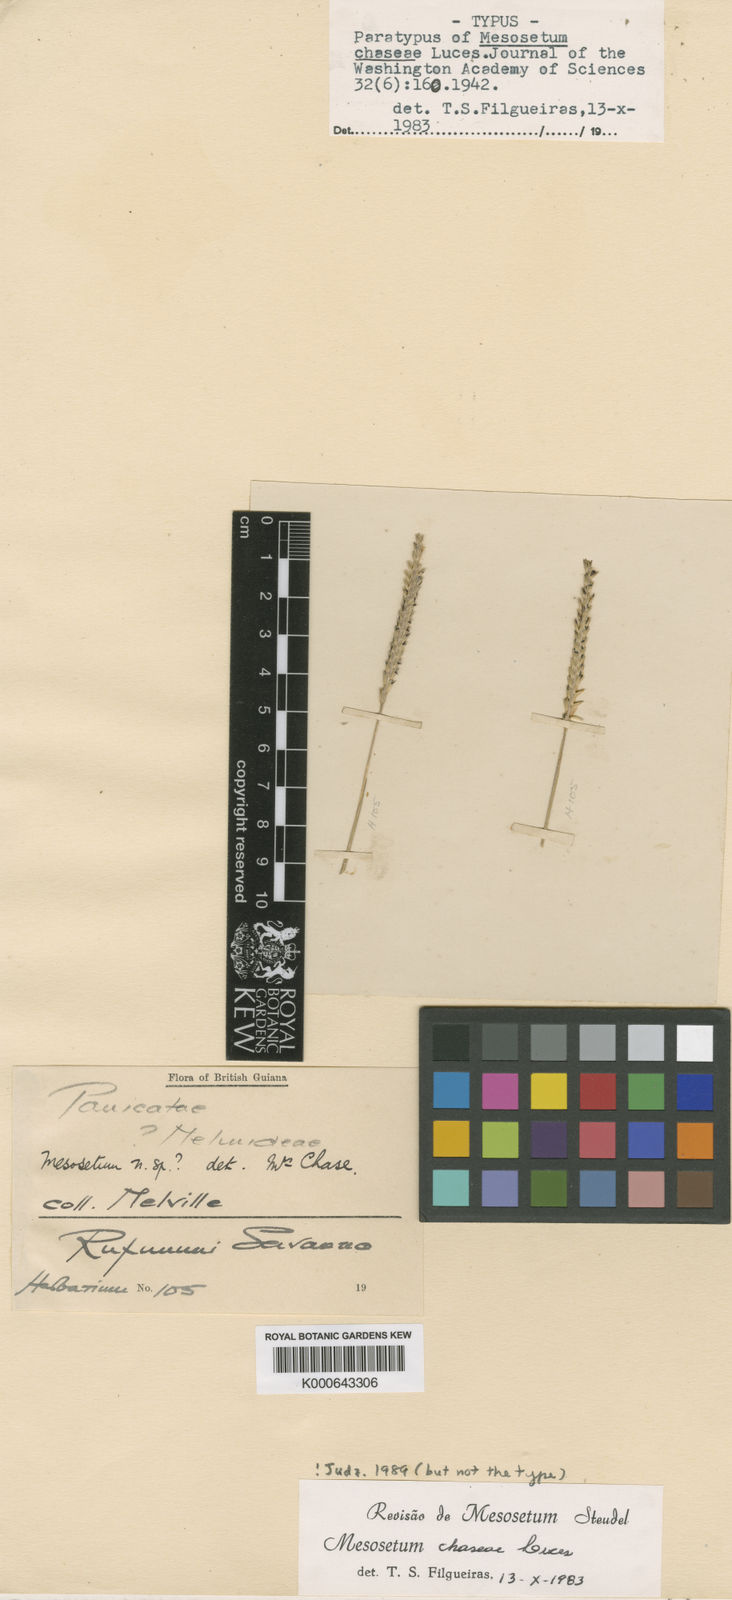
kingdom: Plantae
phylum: Tracheophyta
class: Liliopsida
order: Poales
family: Poaceae
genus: Mesosetum
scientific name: Mesosetum chaseae
